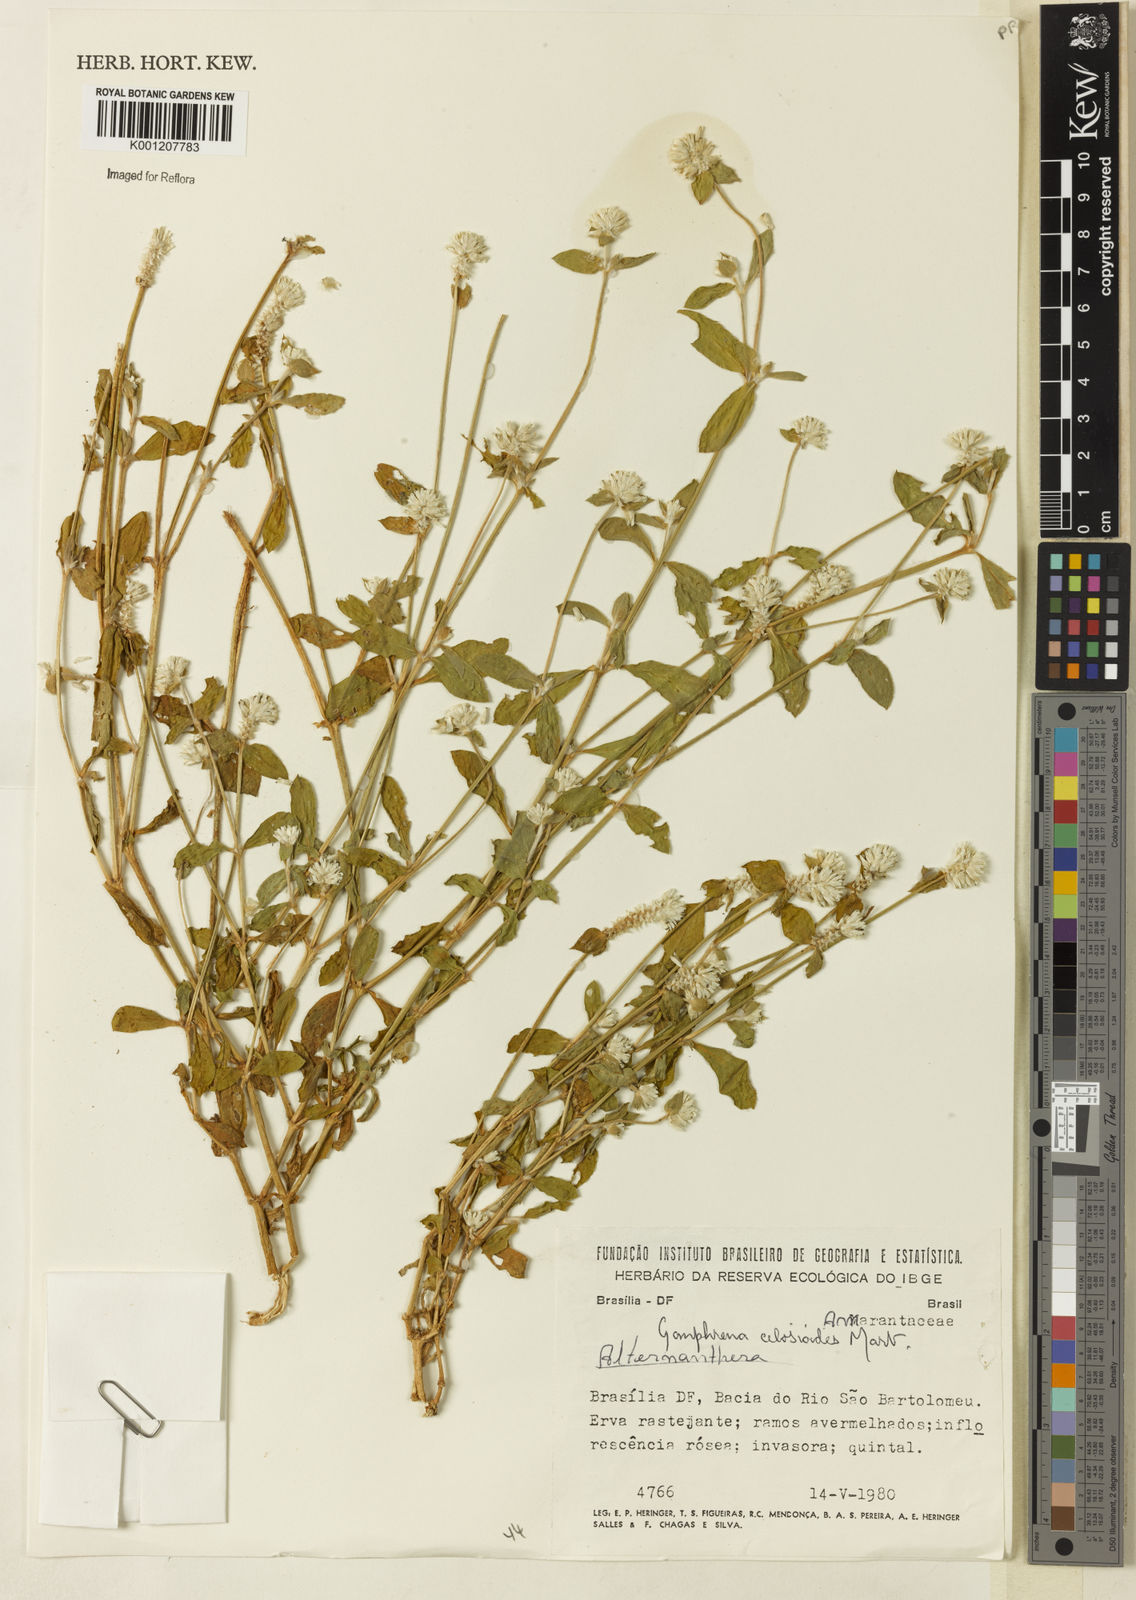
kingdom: Plantae
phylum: Tracheophyta
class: Magnoliopsida
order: Caryophyllales
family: Amaranthaceae
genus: Gomphrena
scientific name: Gomphrena celosioides
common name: Gomphrena-weed
